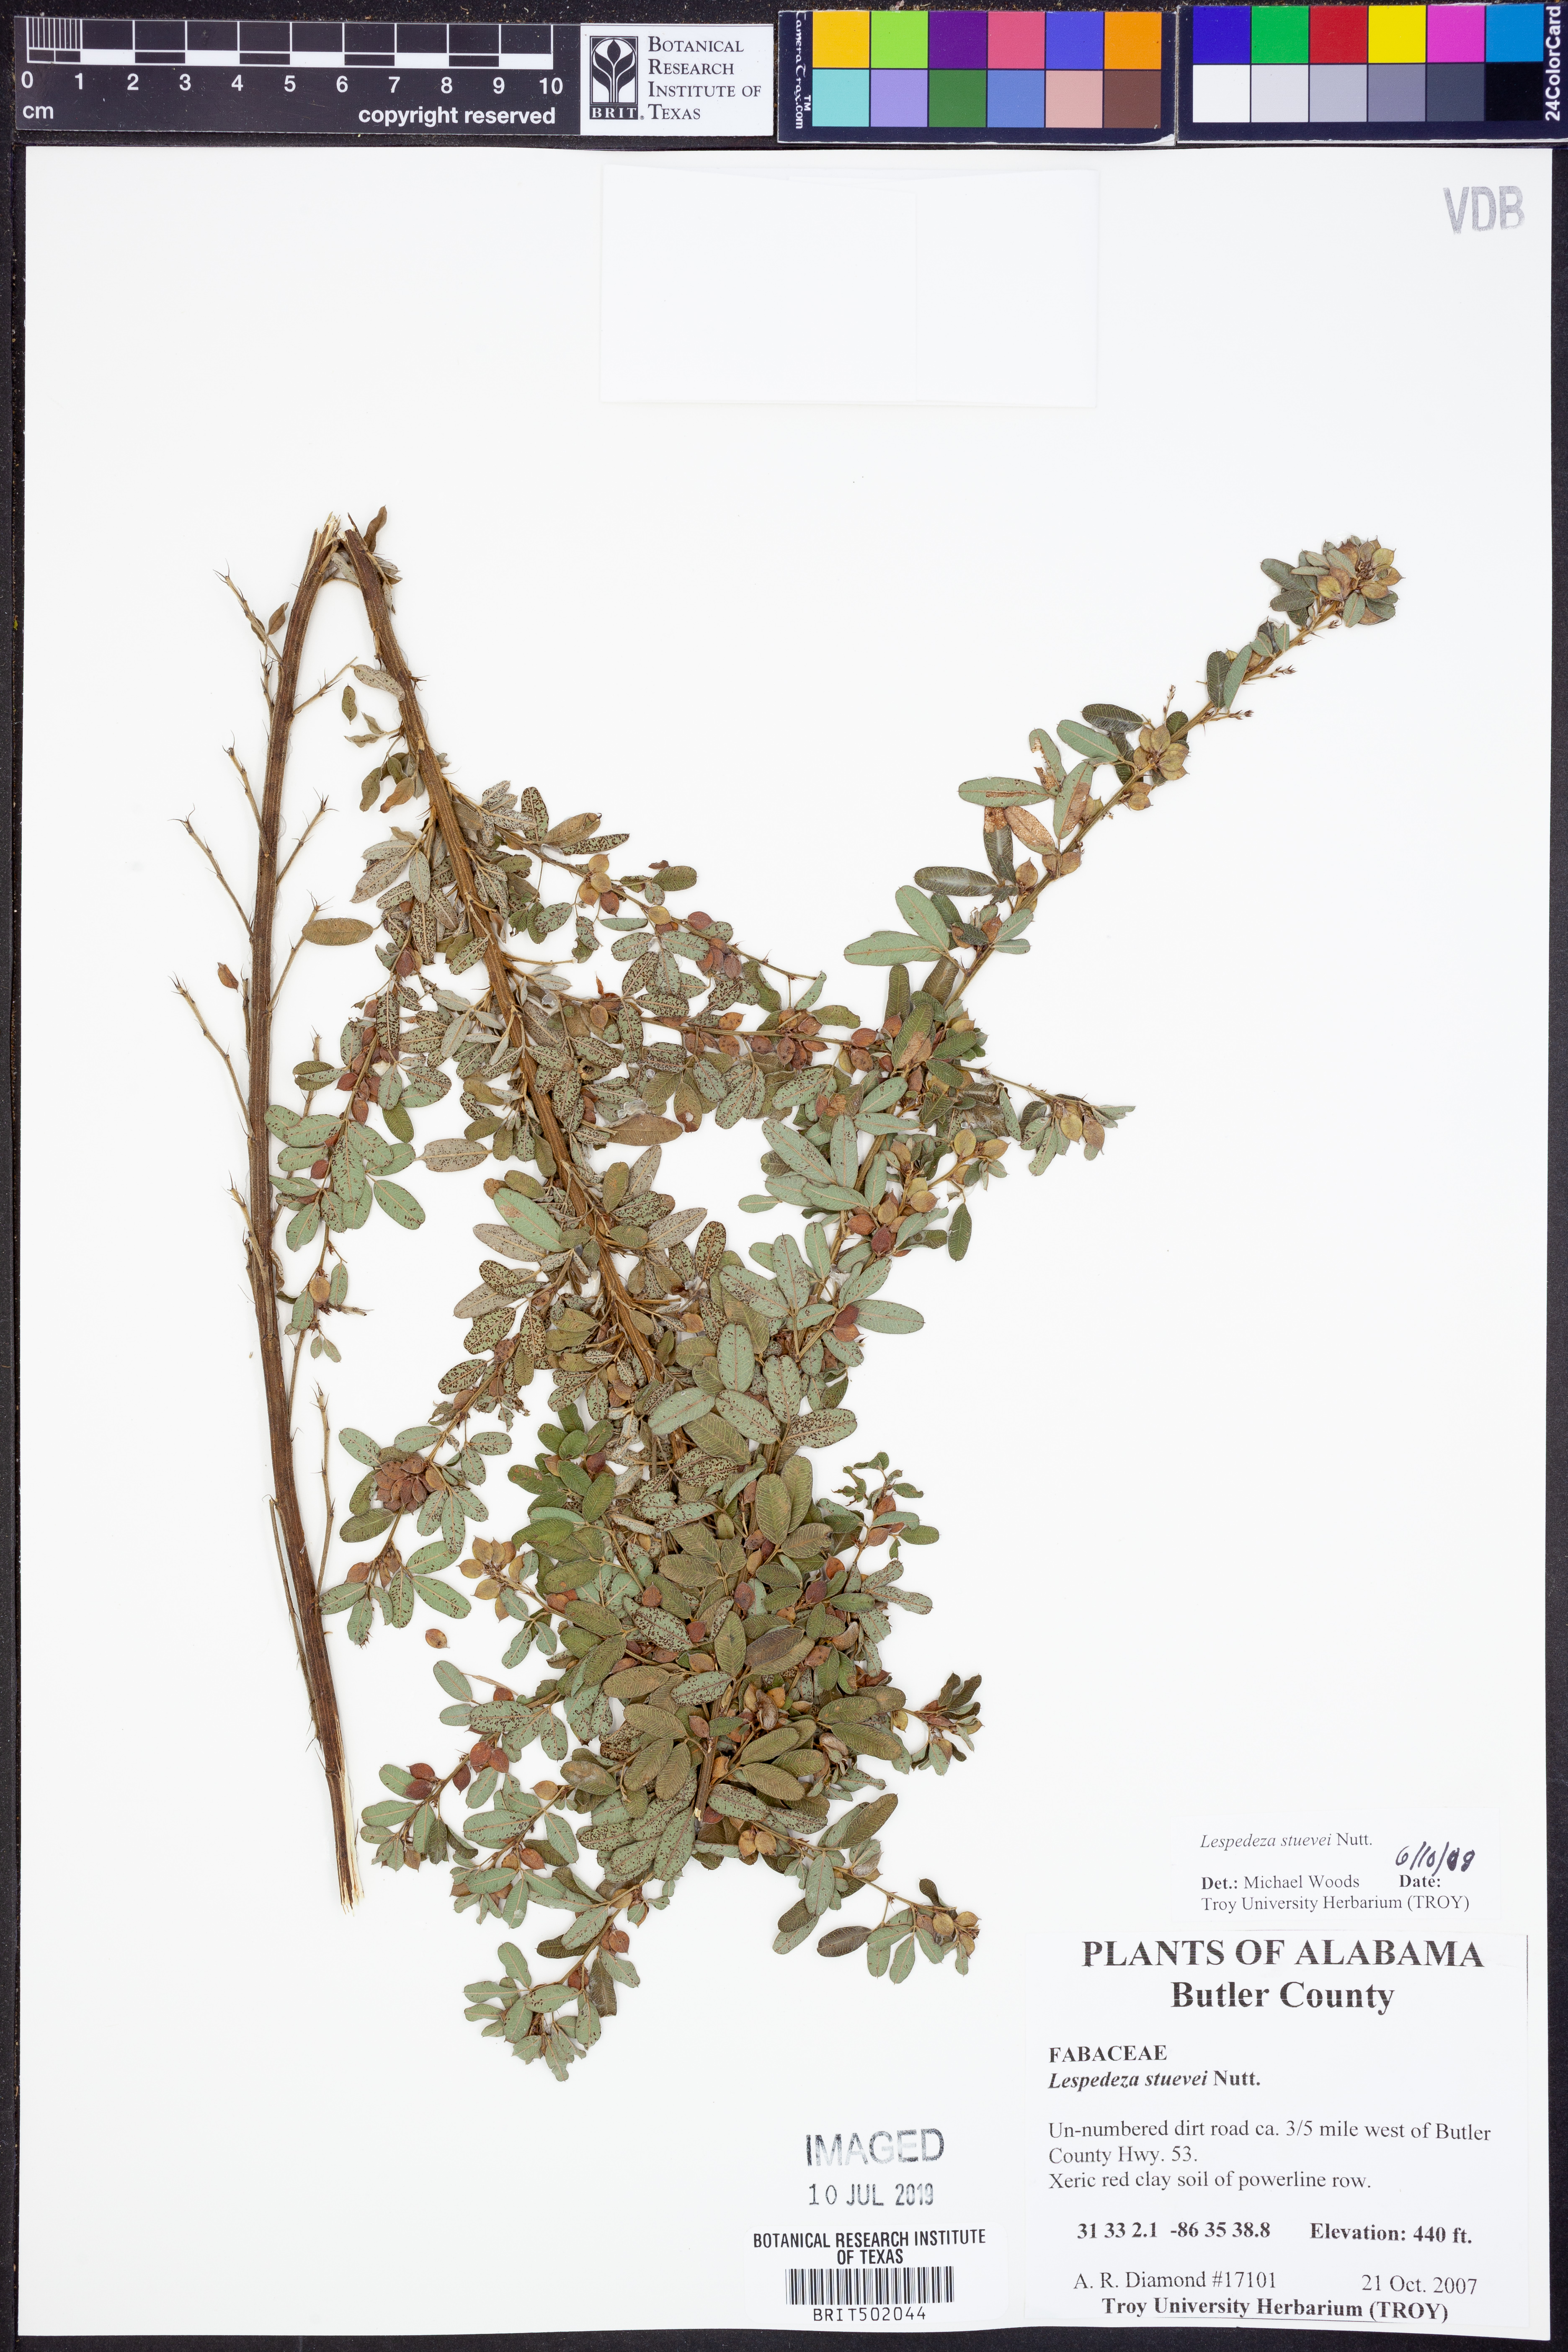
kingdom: Plantae
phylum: Tracheophyta
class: Magnoliopsida
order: Fabales
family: Fabaceae
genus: Lespedeza
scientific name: Lespedeza stuevei
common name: Tall bush-clover
